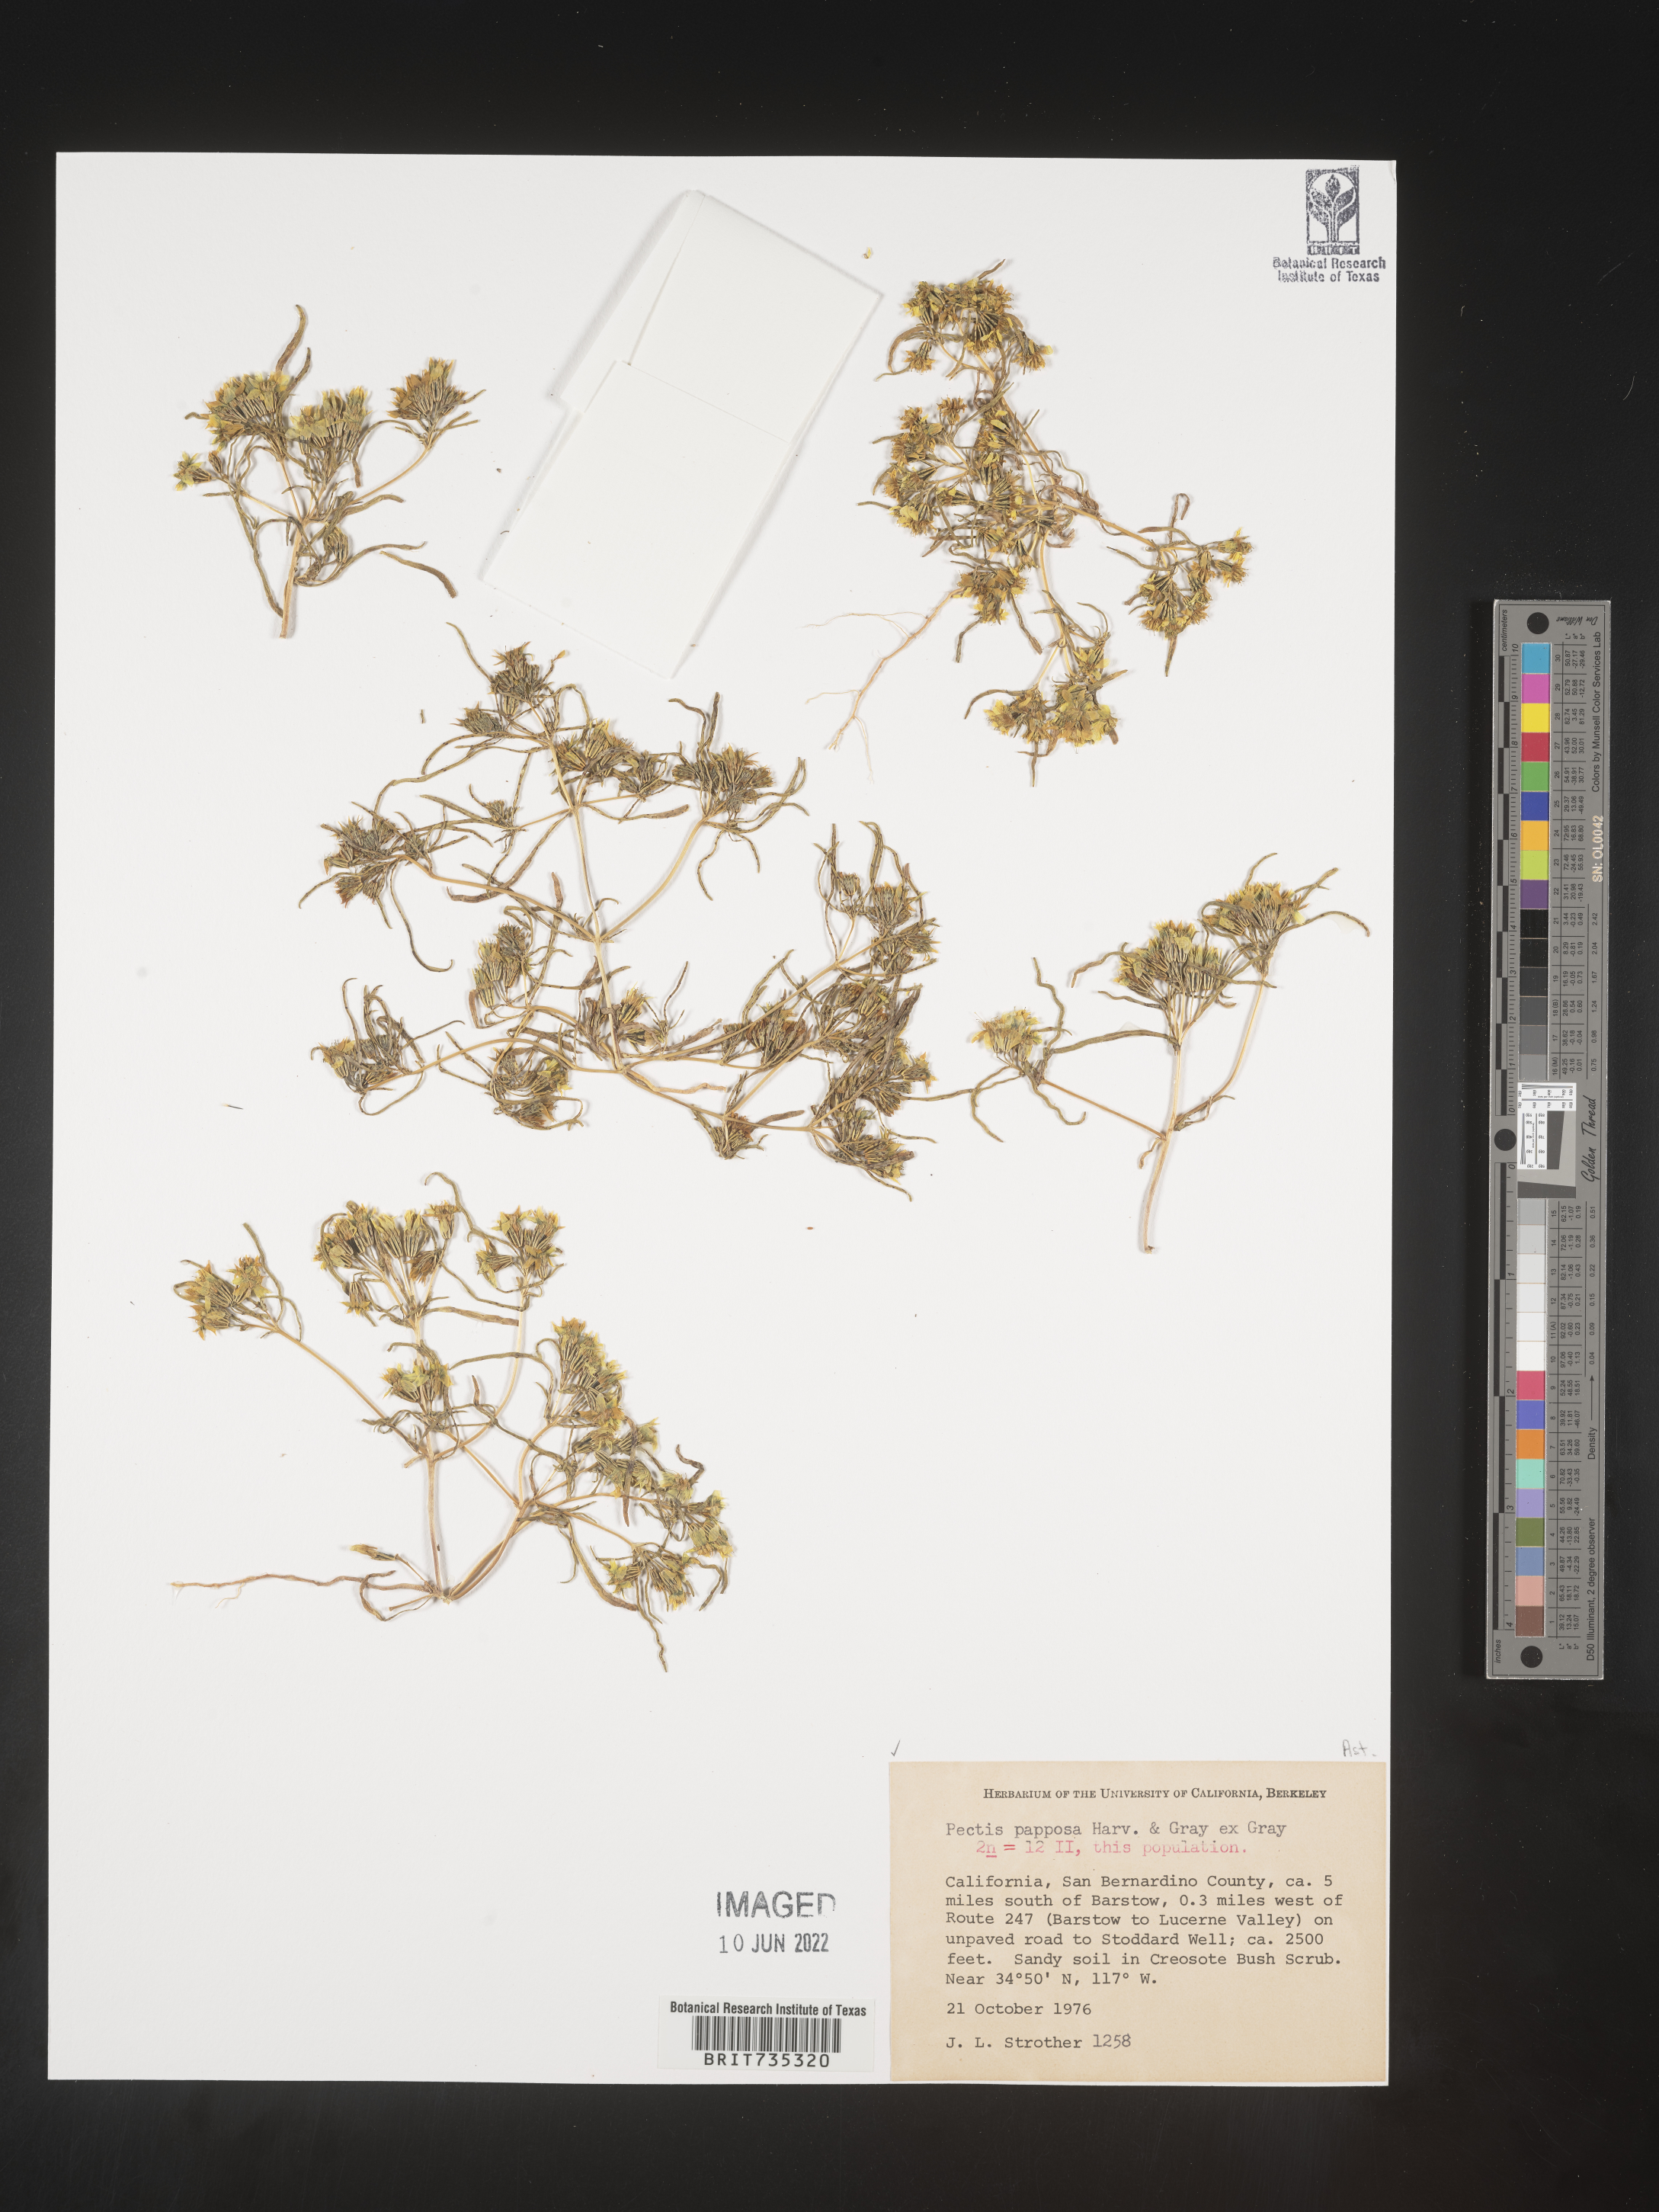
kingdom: Plantae
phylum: Tracheophyta
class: Magnoliopsida
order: Asterales
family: Asteraceae
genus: Pectis
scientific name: Pectis papposa
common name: Many-bristle chinchweed
